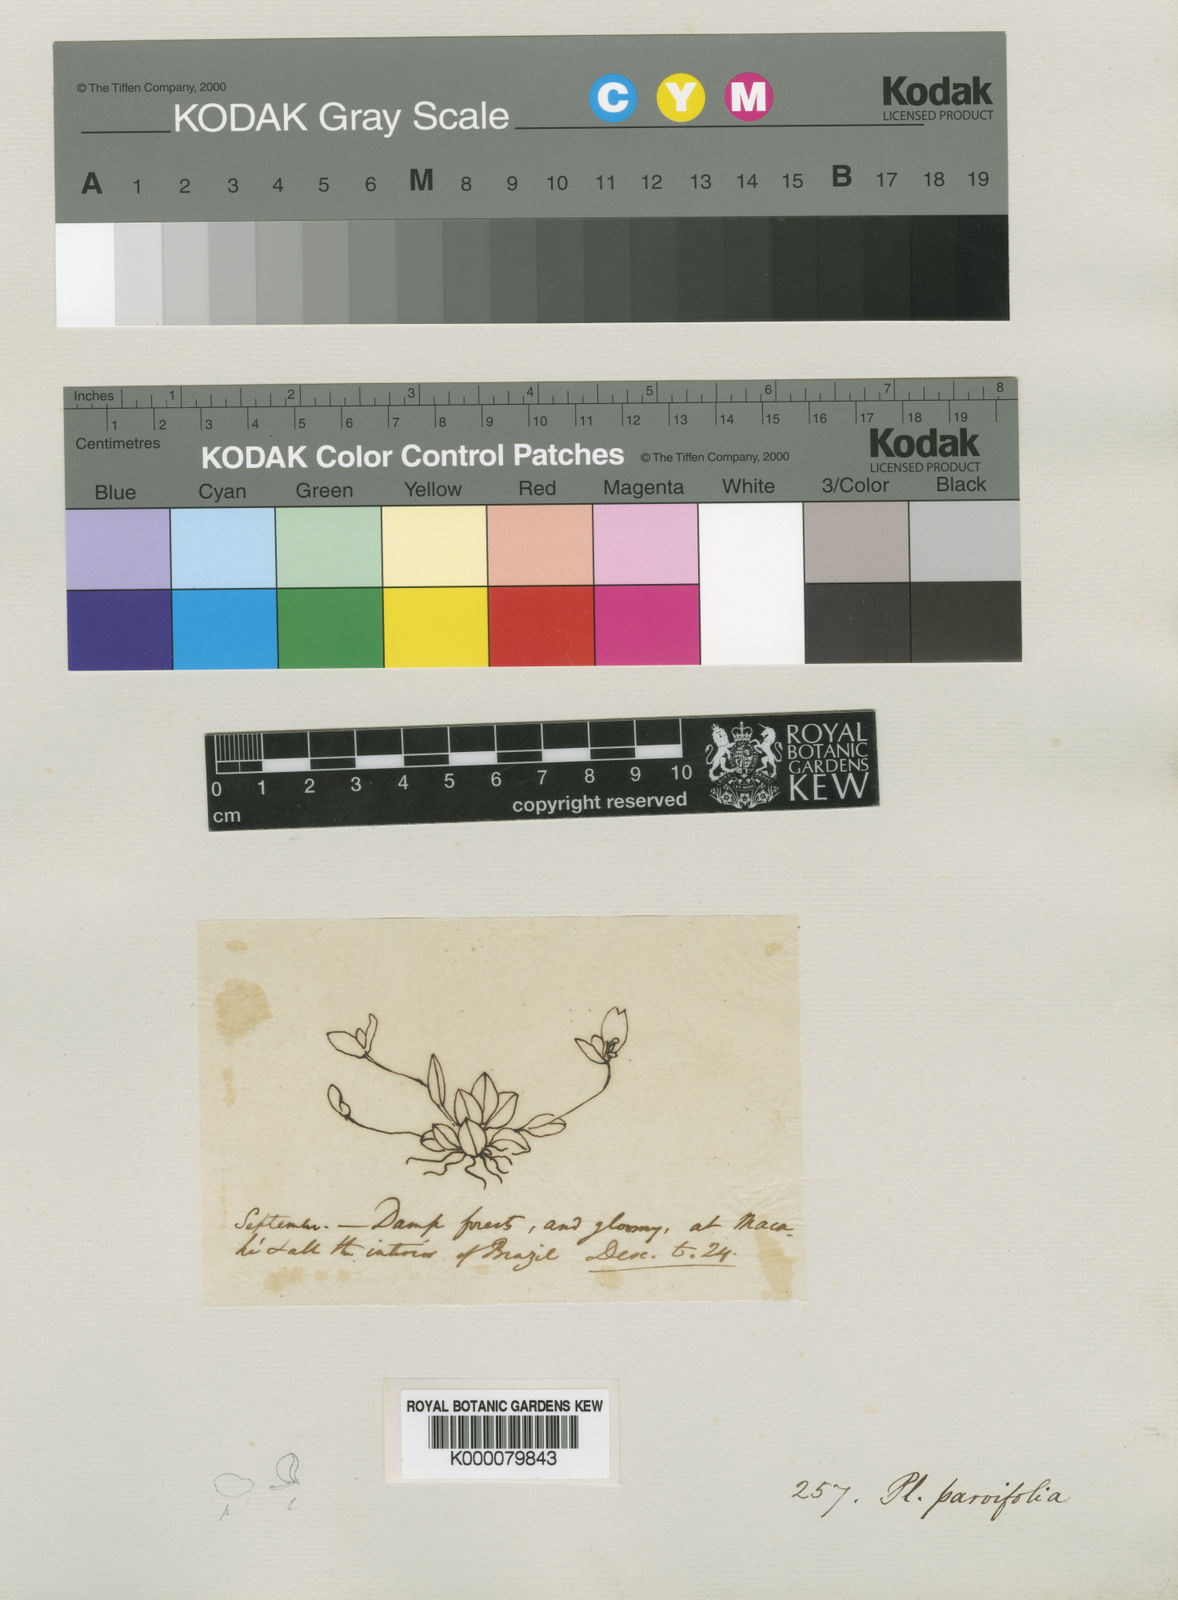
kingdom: Plantae
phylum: Tracheophyta
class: Liliopsida
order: Asparagales
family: Orchidaceae
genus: Pabstiella
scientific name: Pabstiella parvifolia
